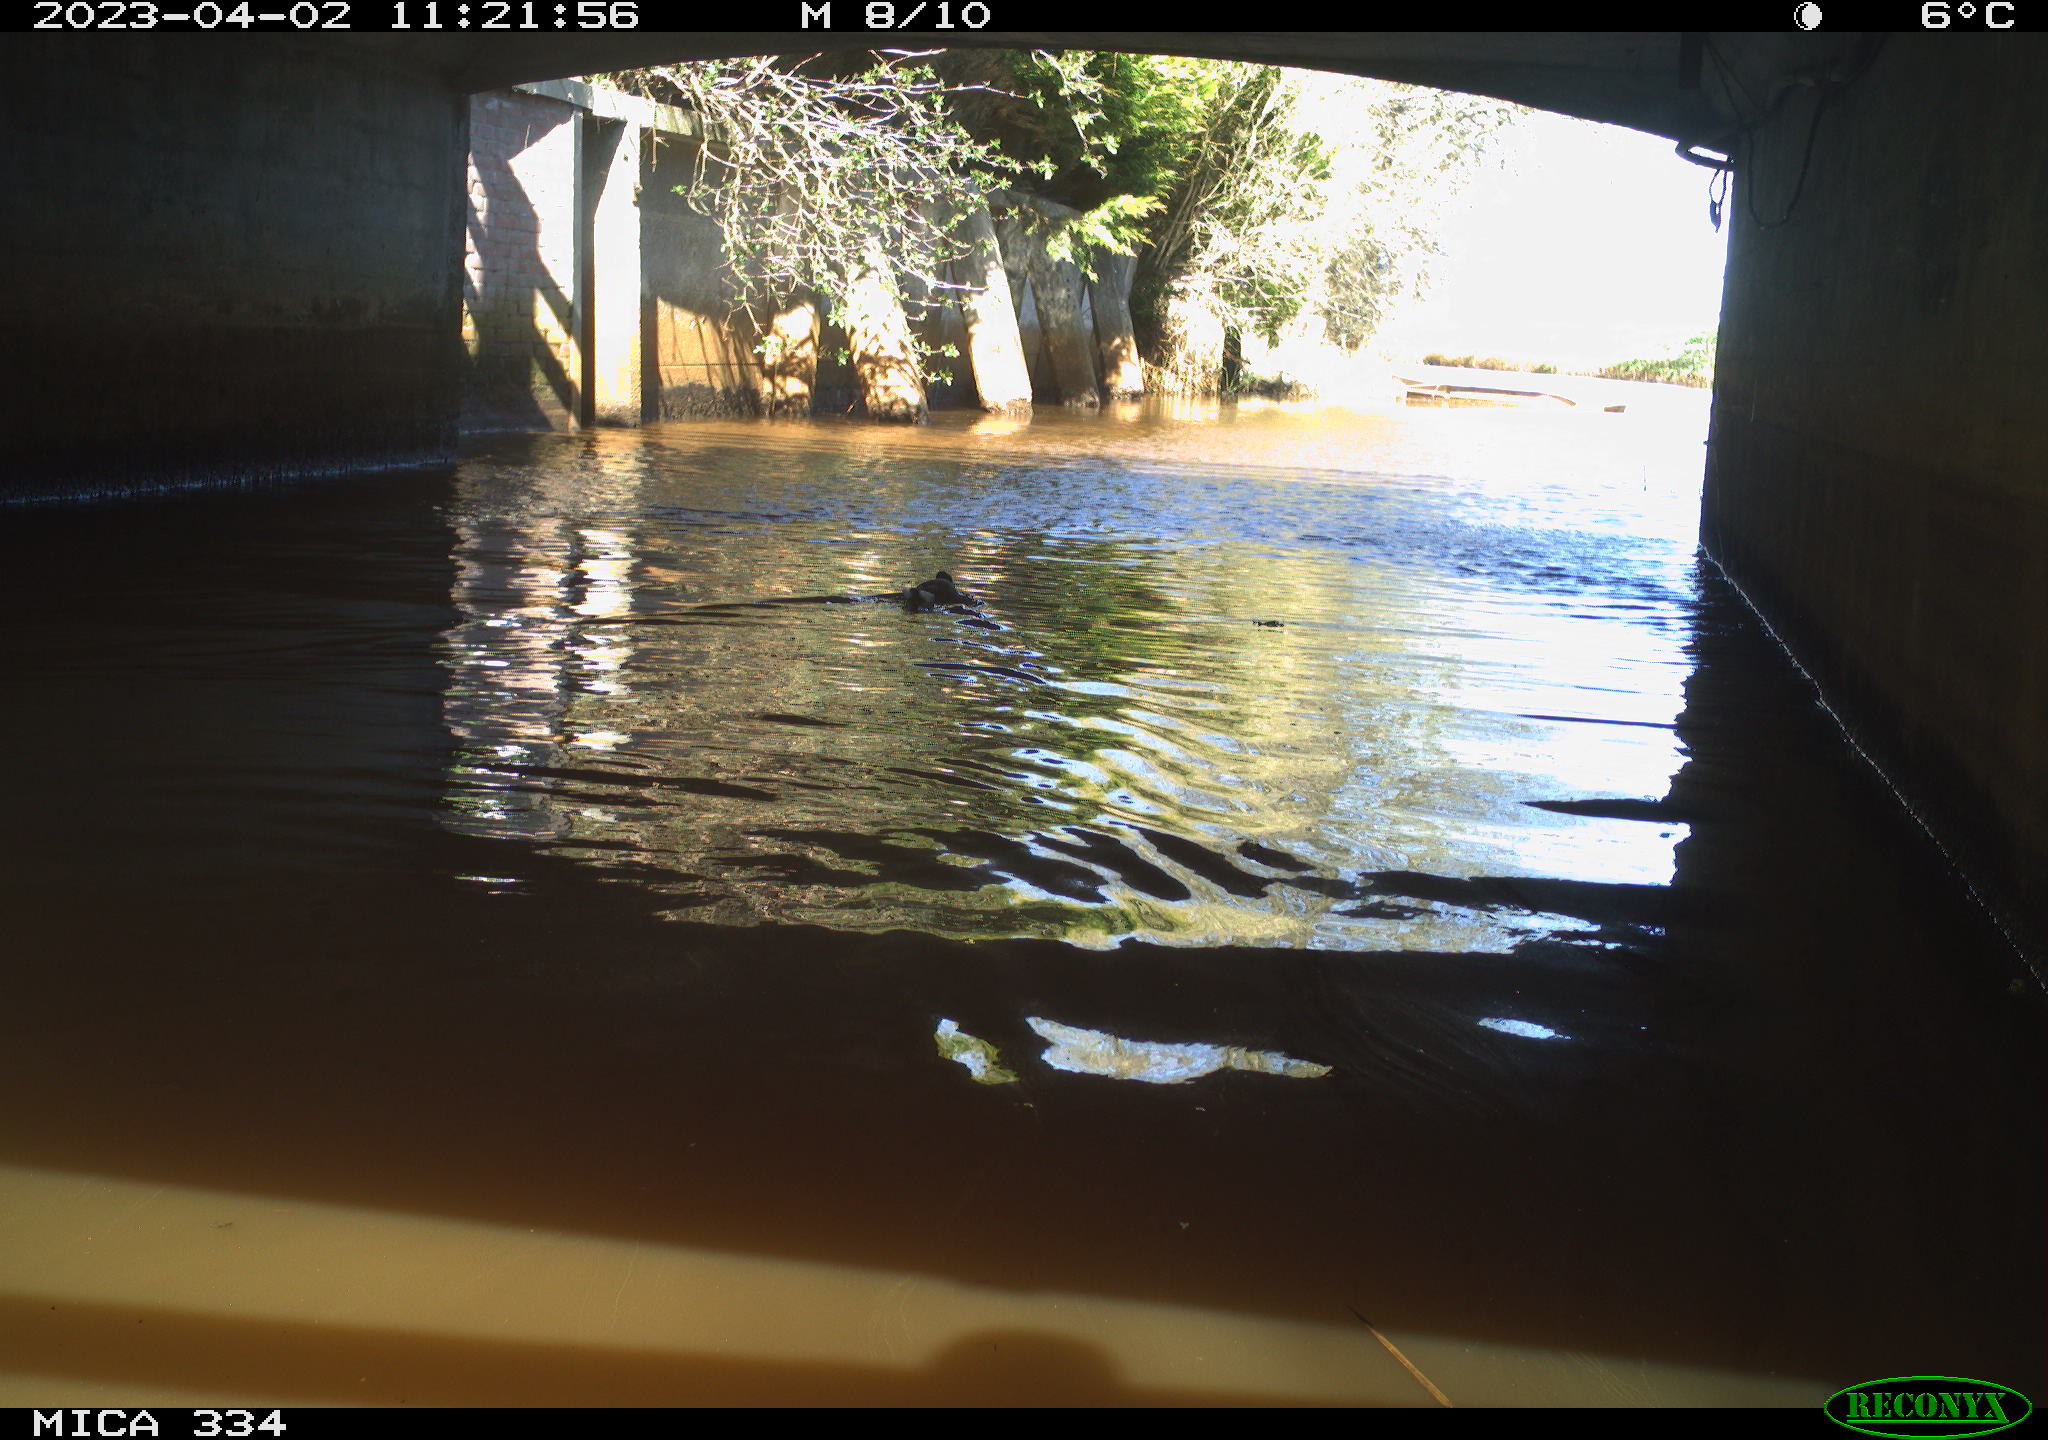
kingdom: Animalia
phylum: Chordata
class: Aves
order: Anseriformes
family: Anatidae
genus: Anas
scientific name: Anas
